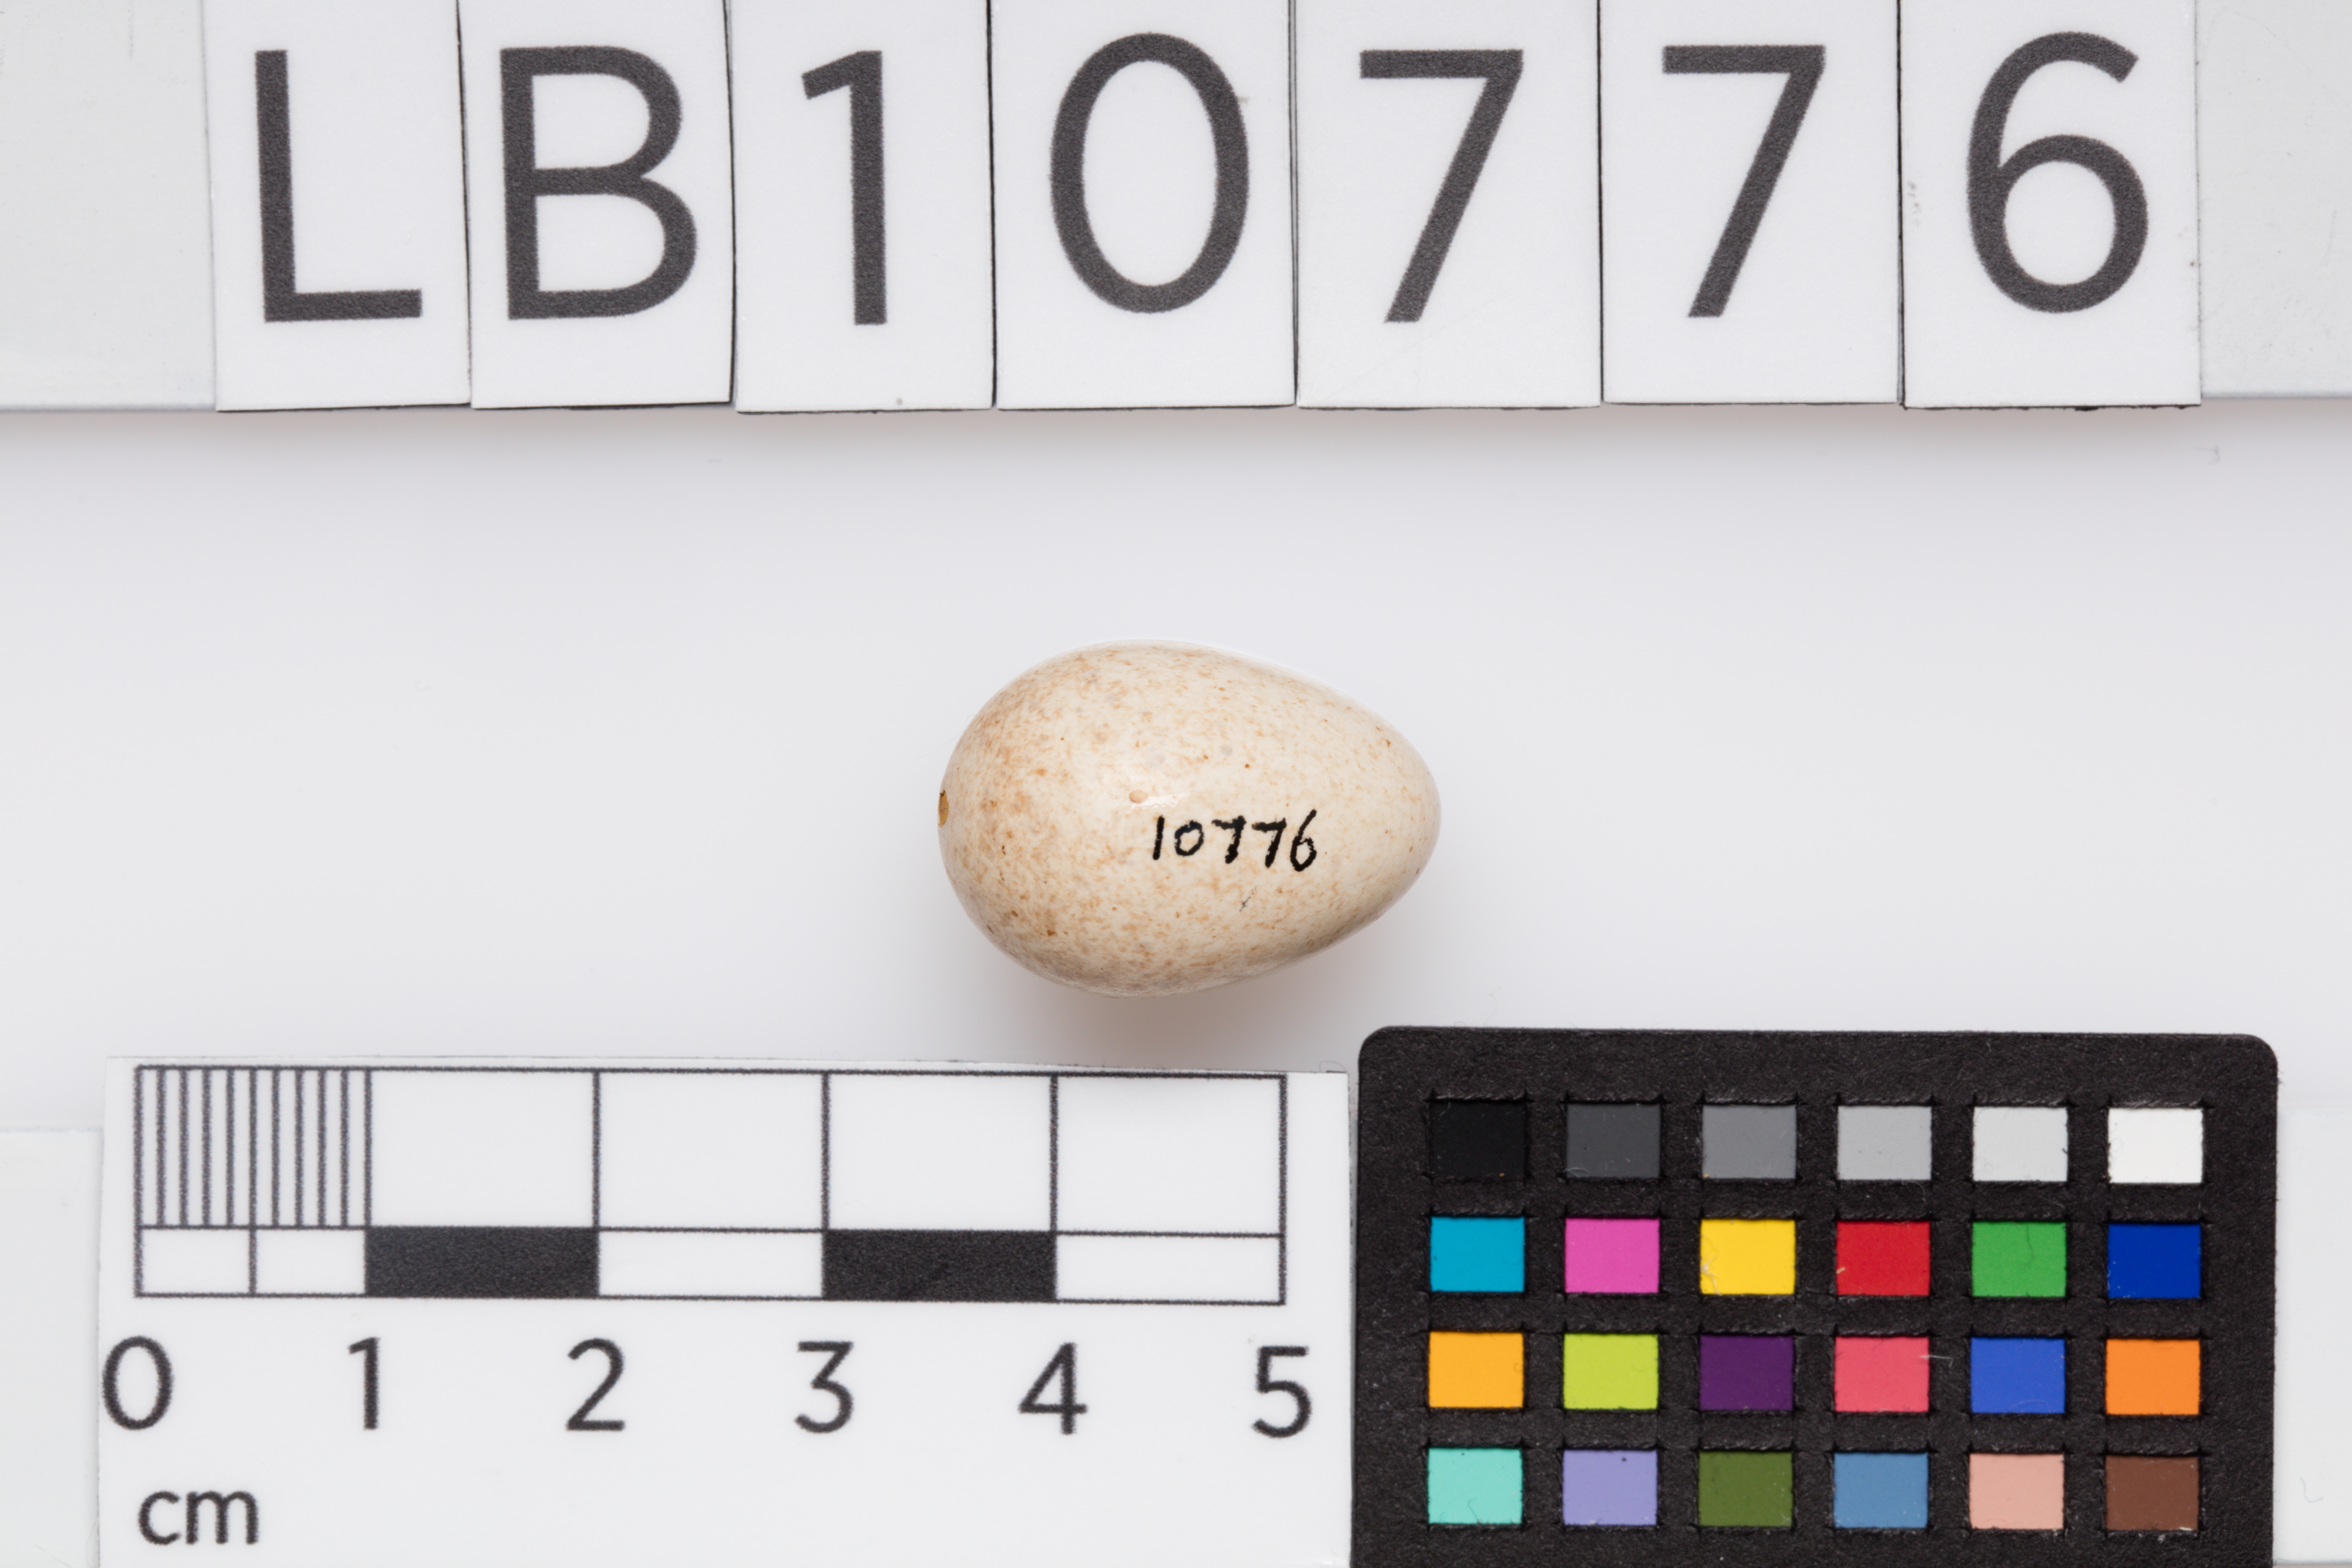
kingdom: Animalia
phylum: Chordata
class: Aves
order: Passeriformes
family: Muscicapidae
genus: Erithacus
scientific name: Erithacus rubecula
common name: European robin
